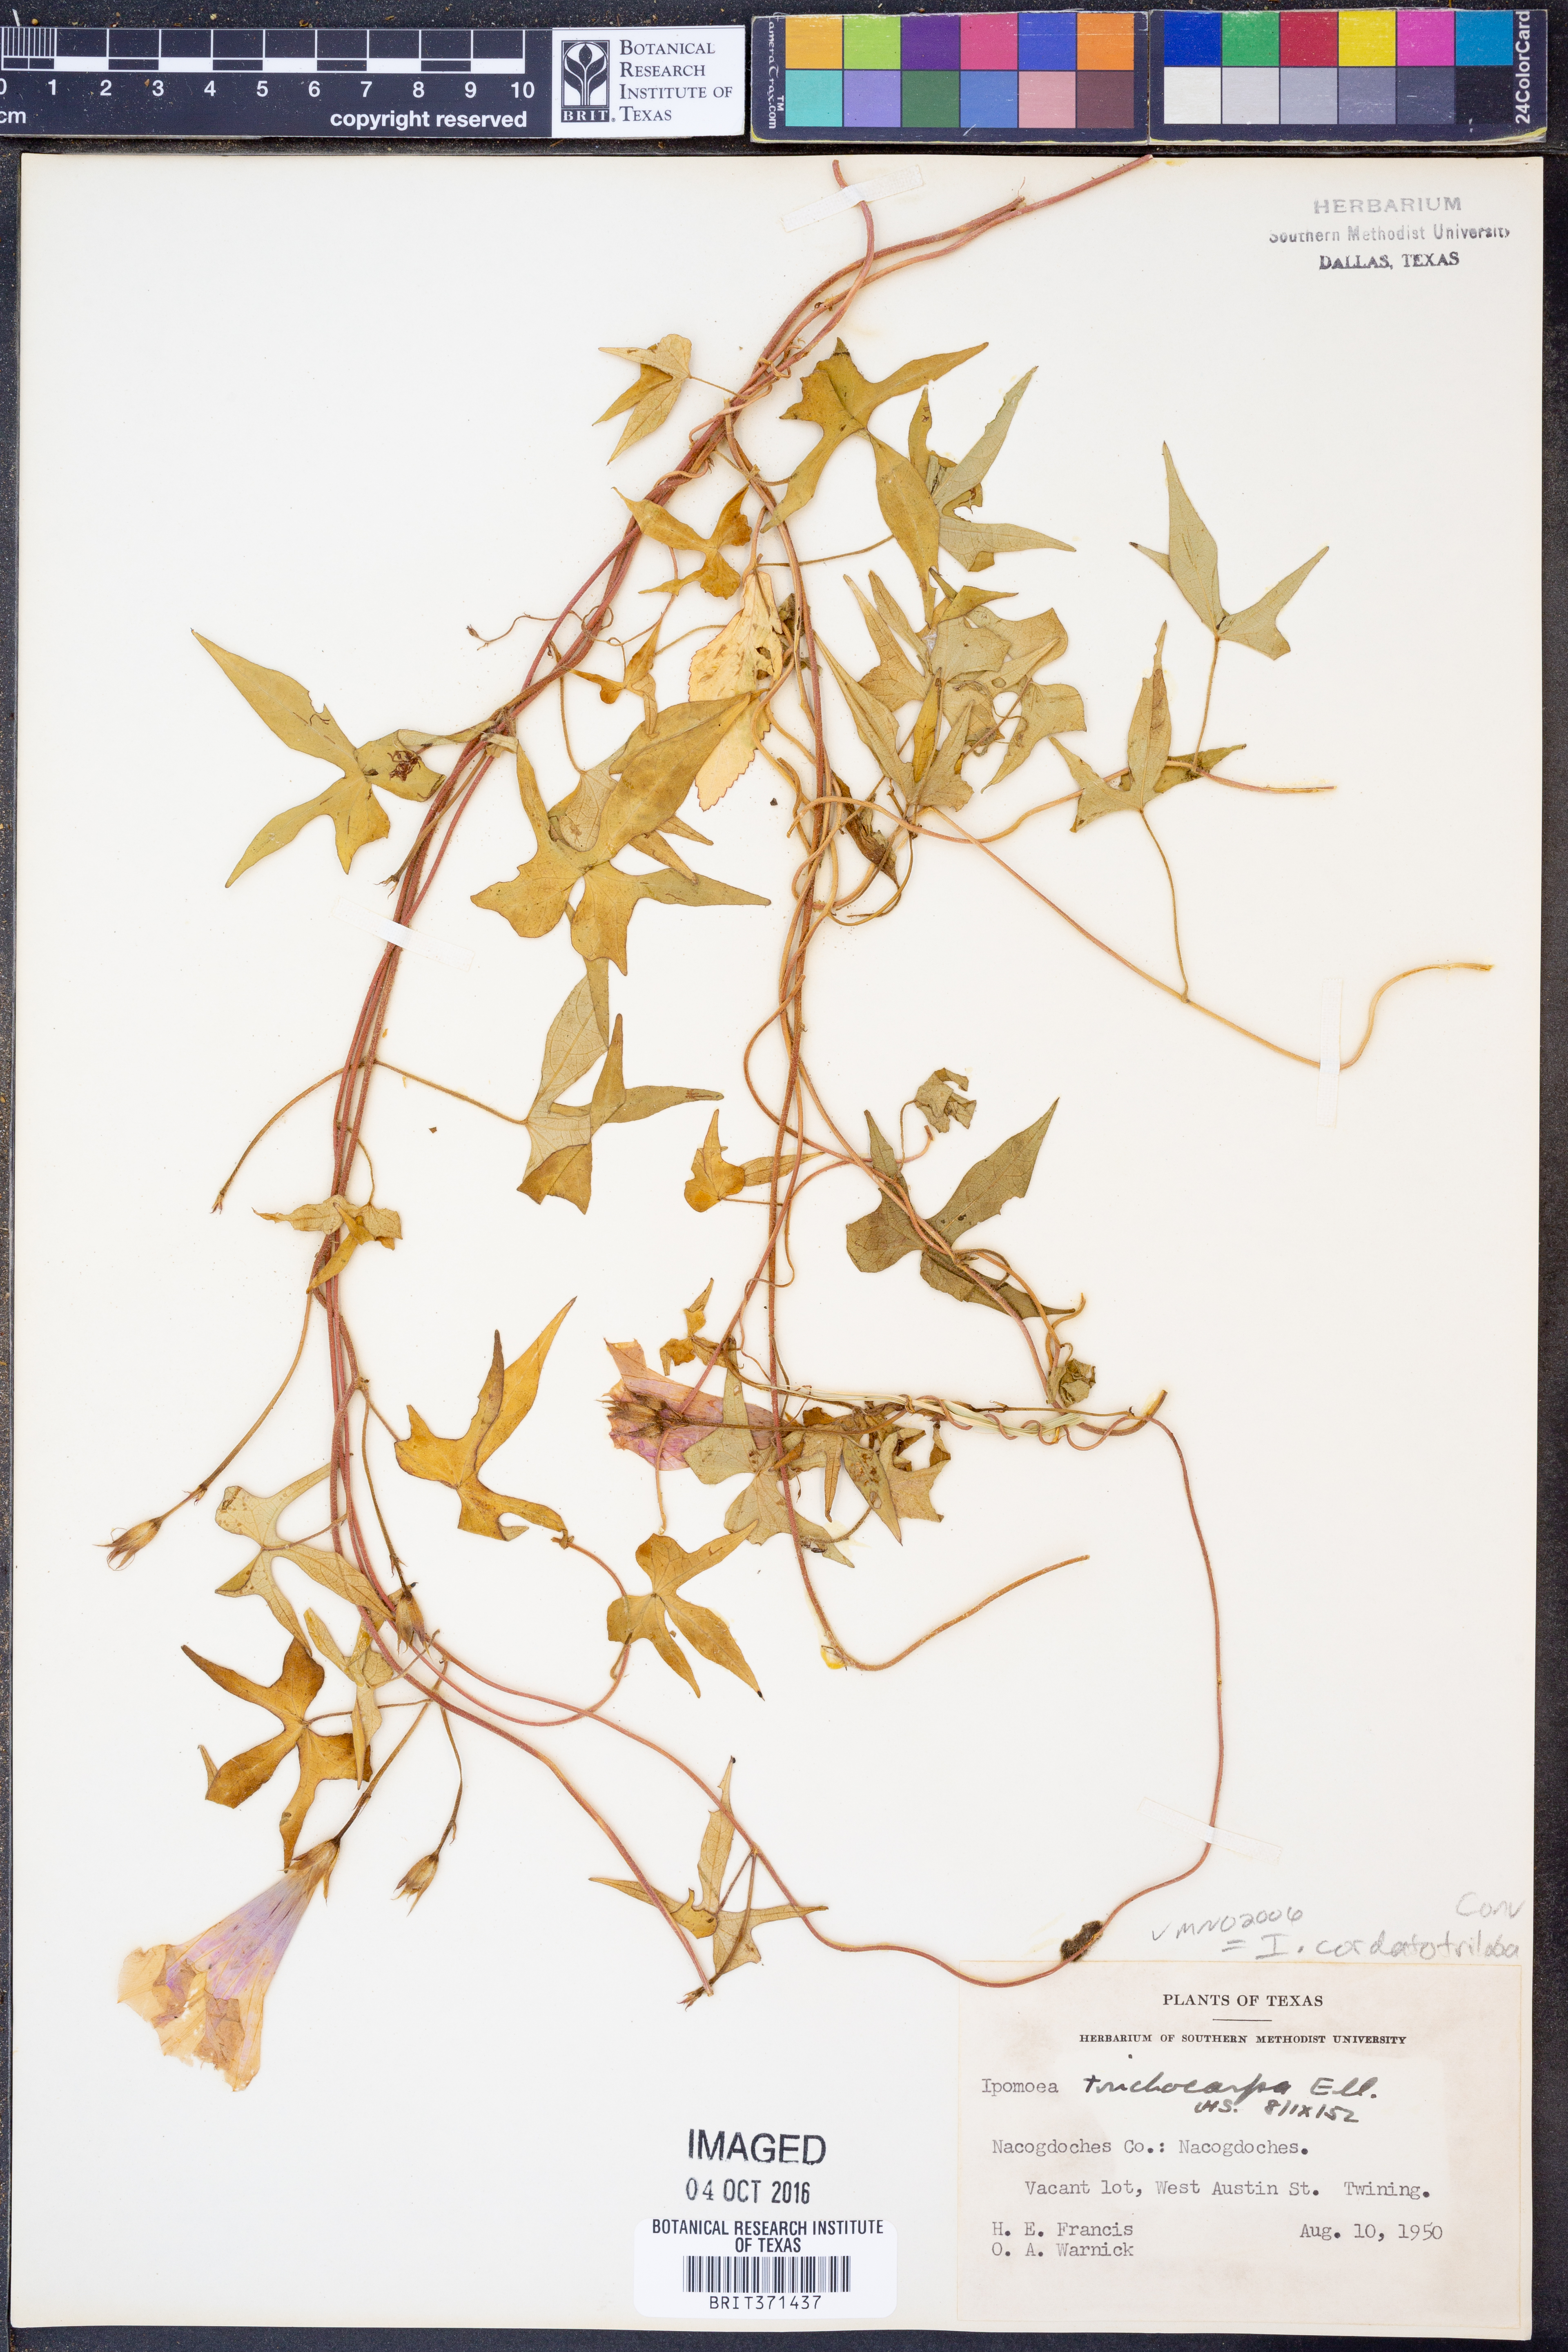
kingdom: Plantae
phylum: Tracheophyta
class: Magnoliopsida
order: Solanales
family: Convolvulaceae
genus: Ipomoea
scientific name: Ipomoea cordatotriloba
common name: Cotton morning glory
